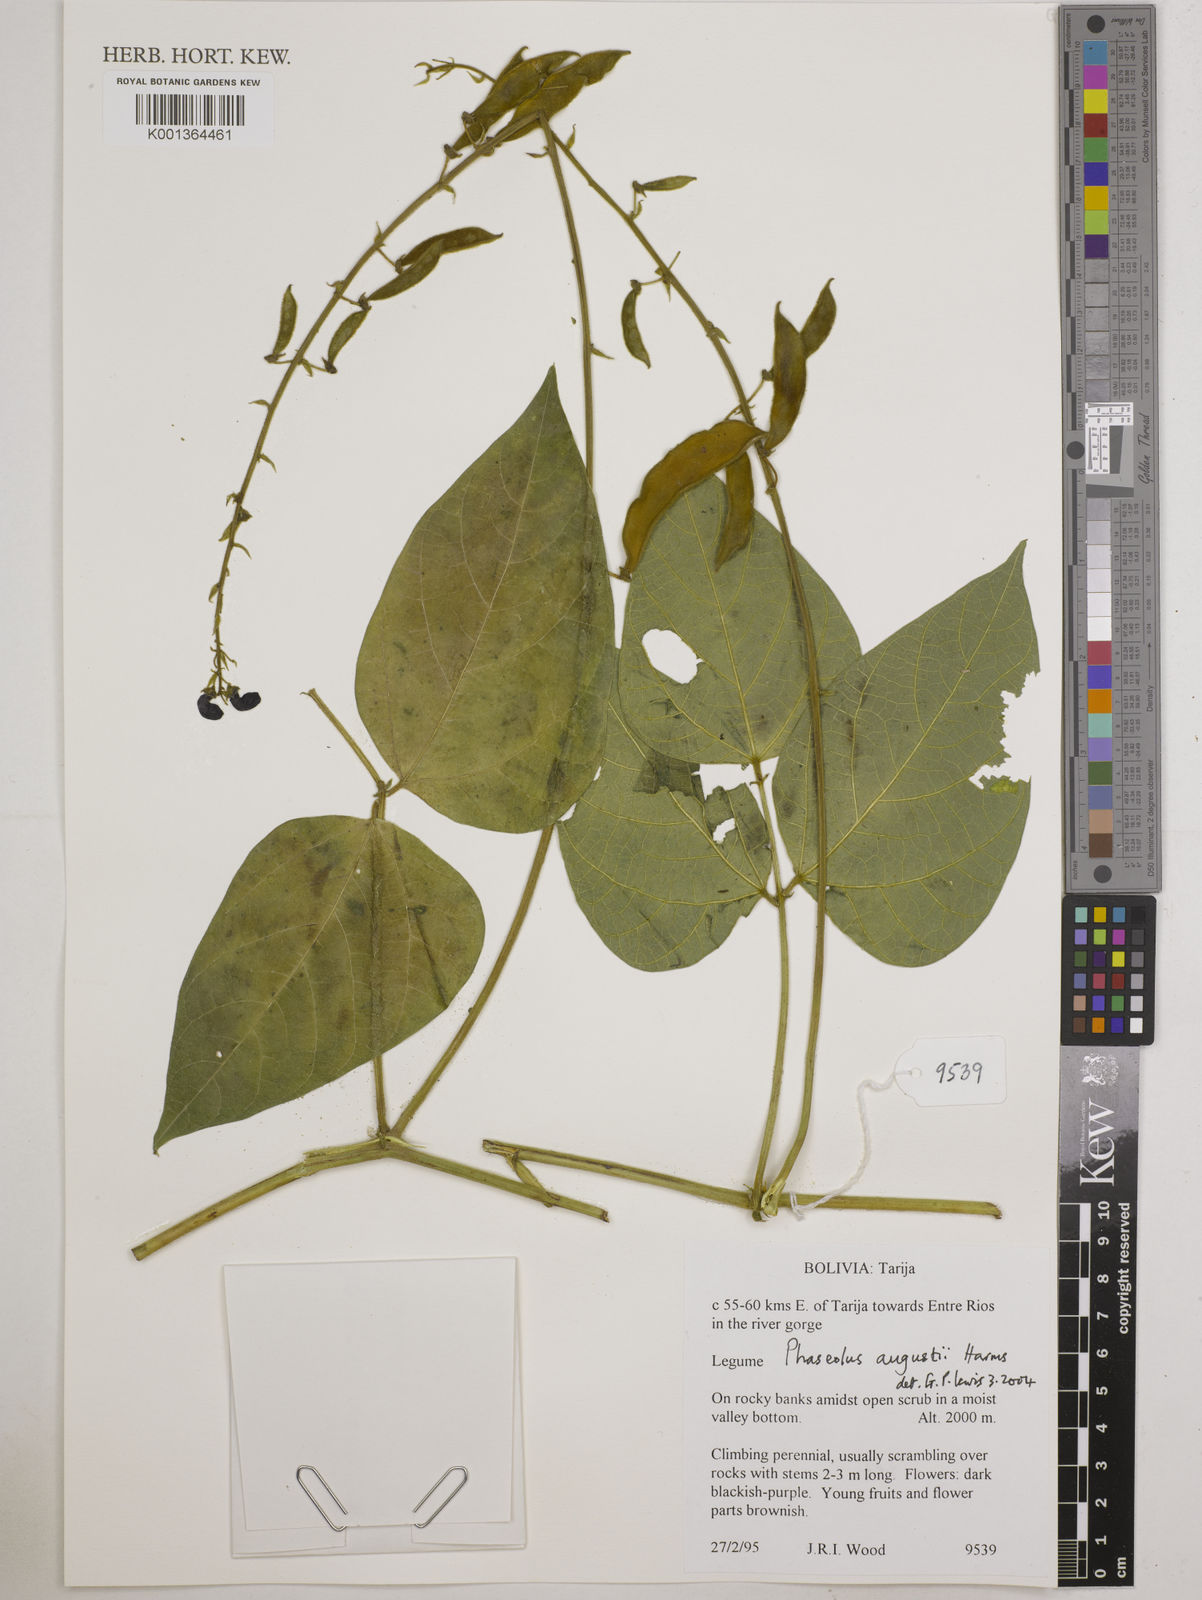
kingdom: Plantae
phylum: Tracheophyta
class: Magnoliopsida
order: Fabales
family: Fabaceae
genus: Phaseolus
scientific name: Phaseolus augusti
